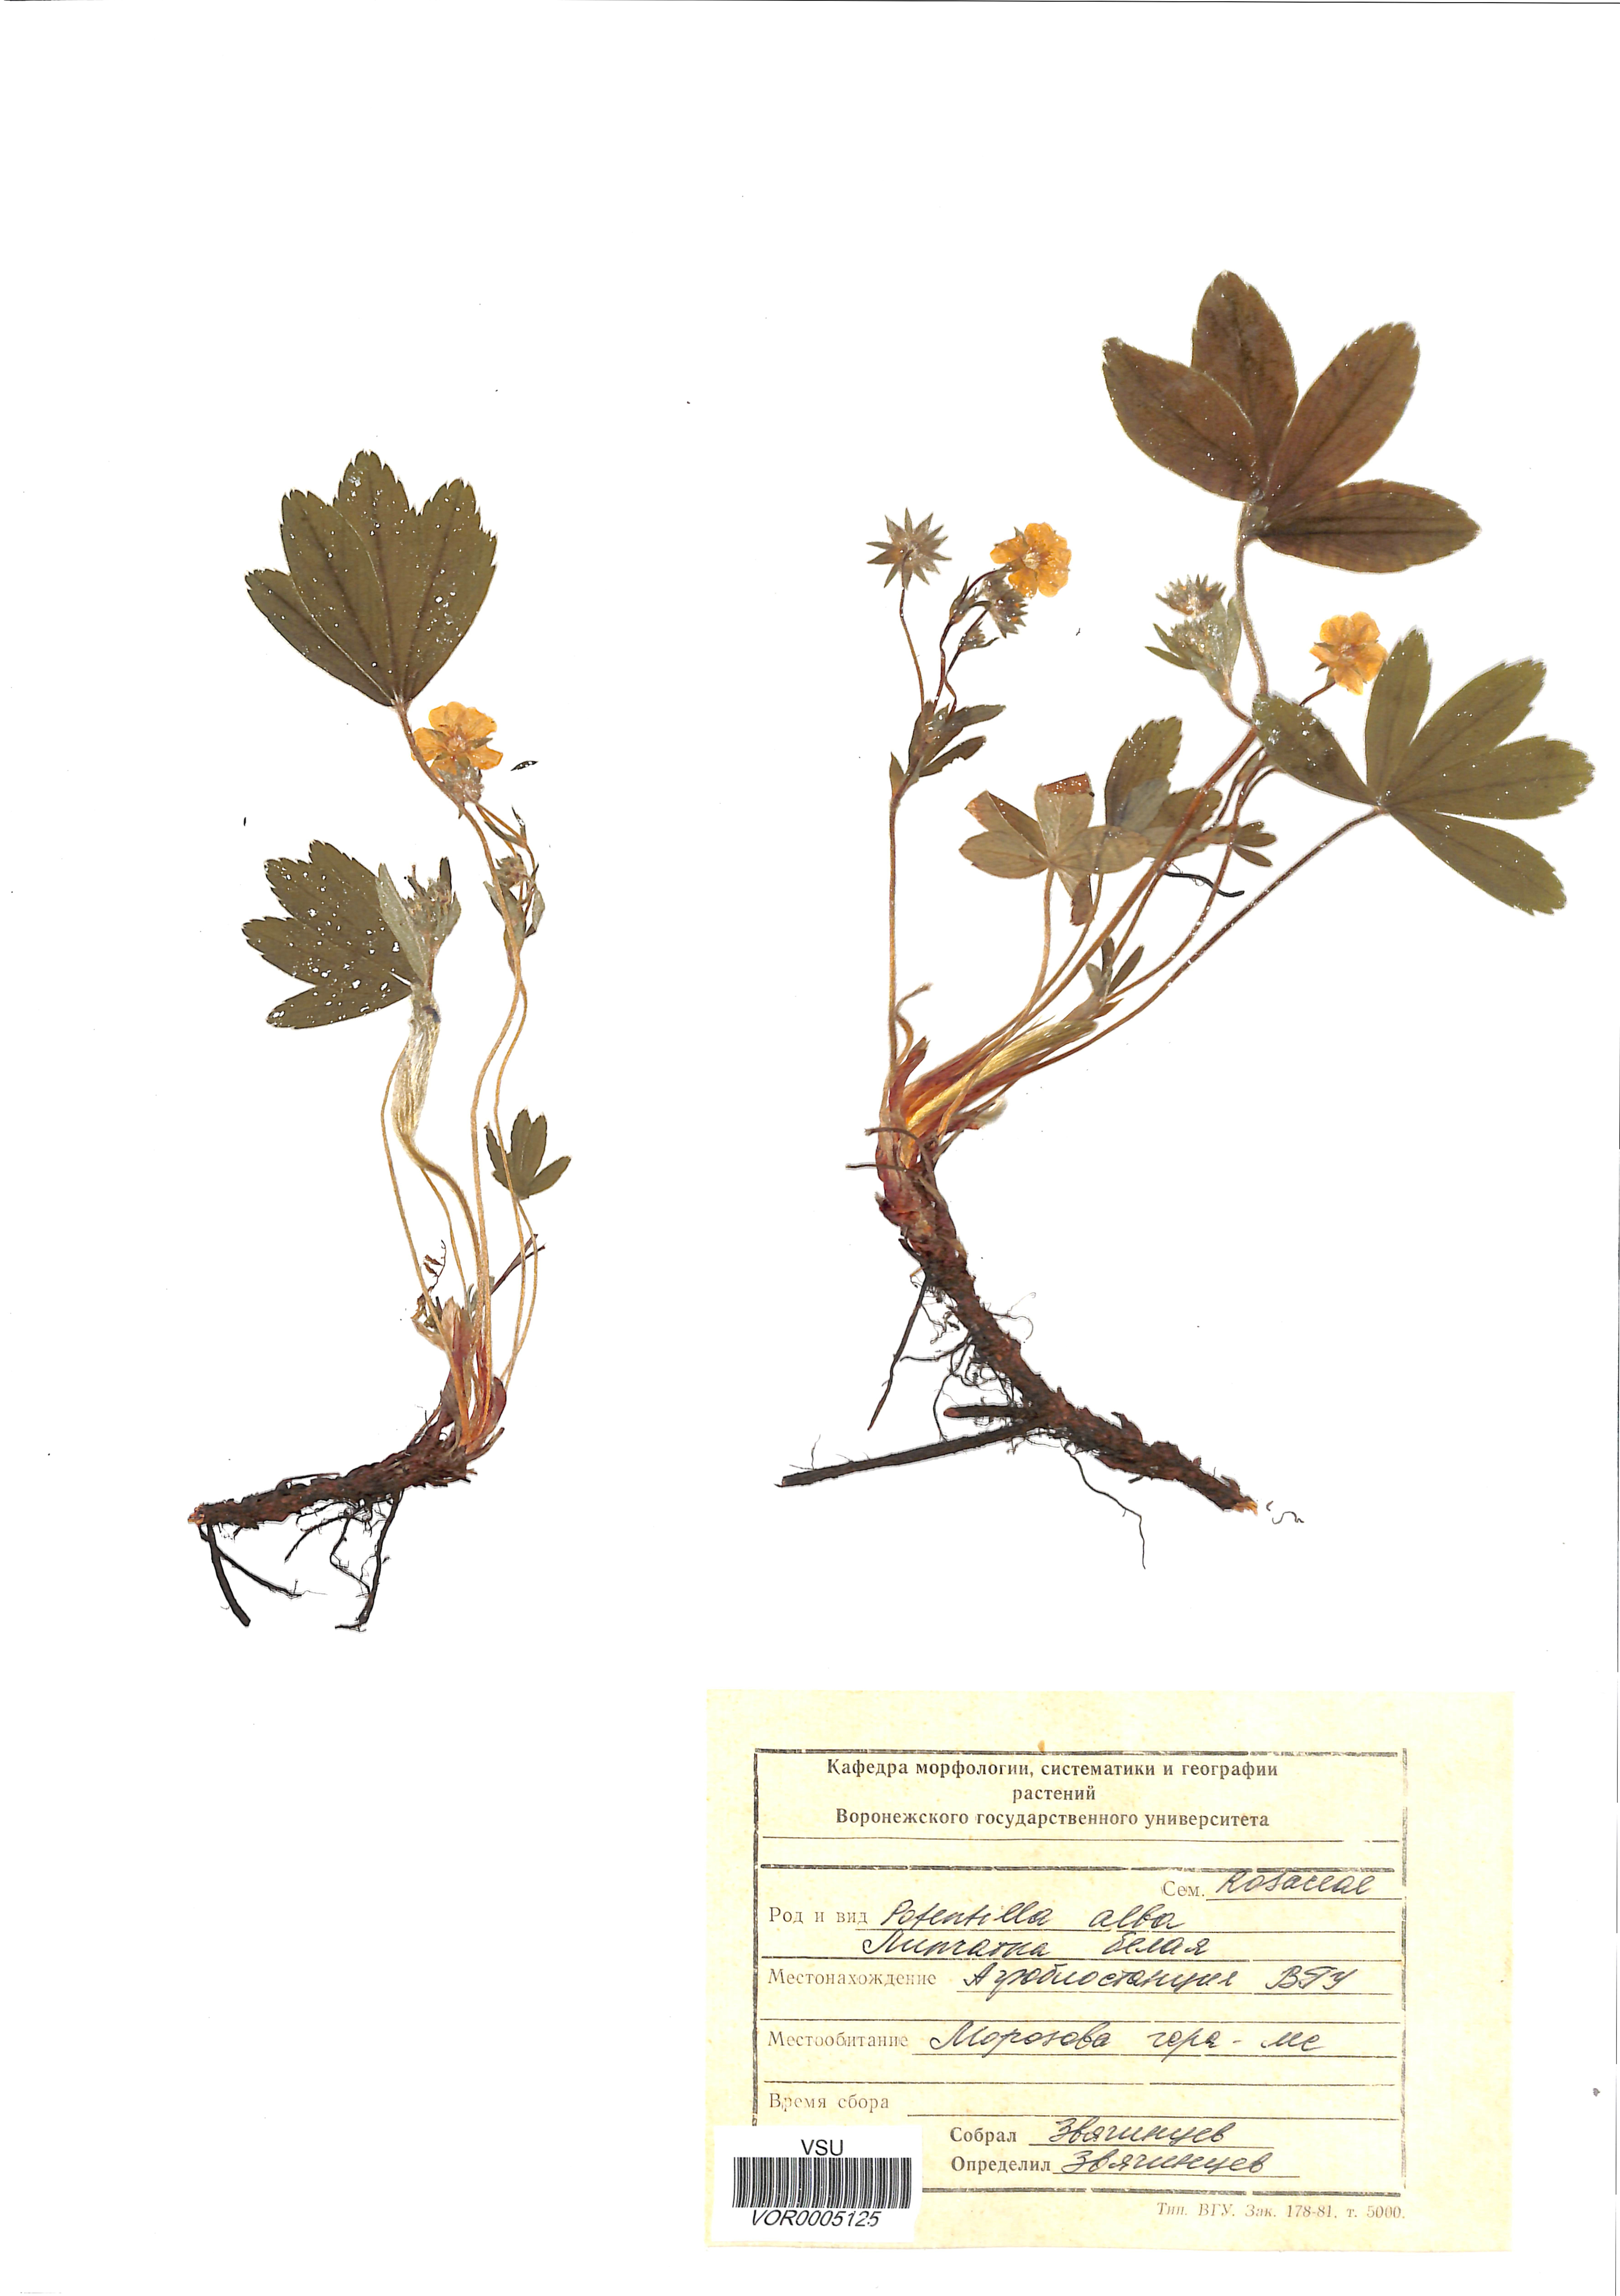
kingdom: Plantae
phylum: Tracheophyta
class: Magnoliopsida
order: Rosales
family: Rosaceae
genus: Potentilla
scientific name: Potentilla alba
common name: White cinquefoil
